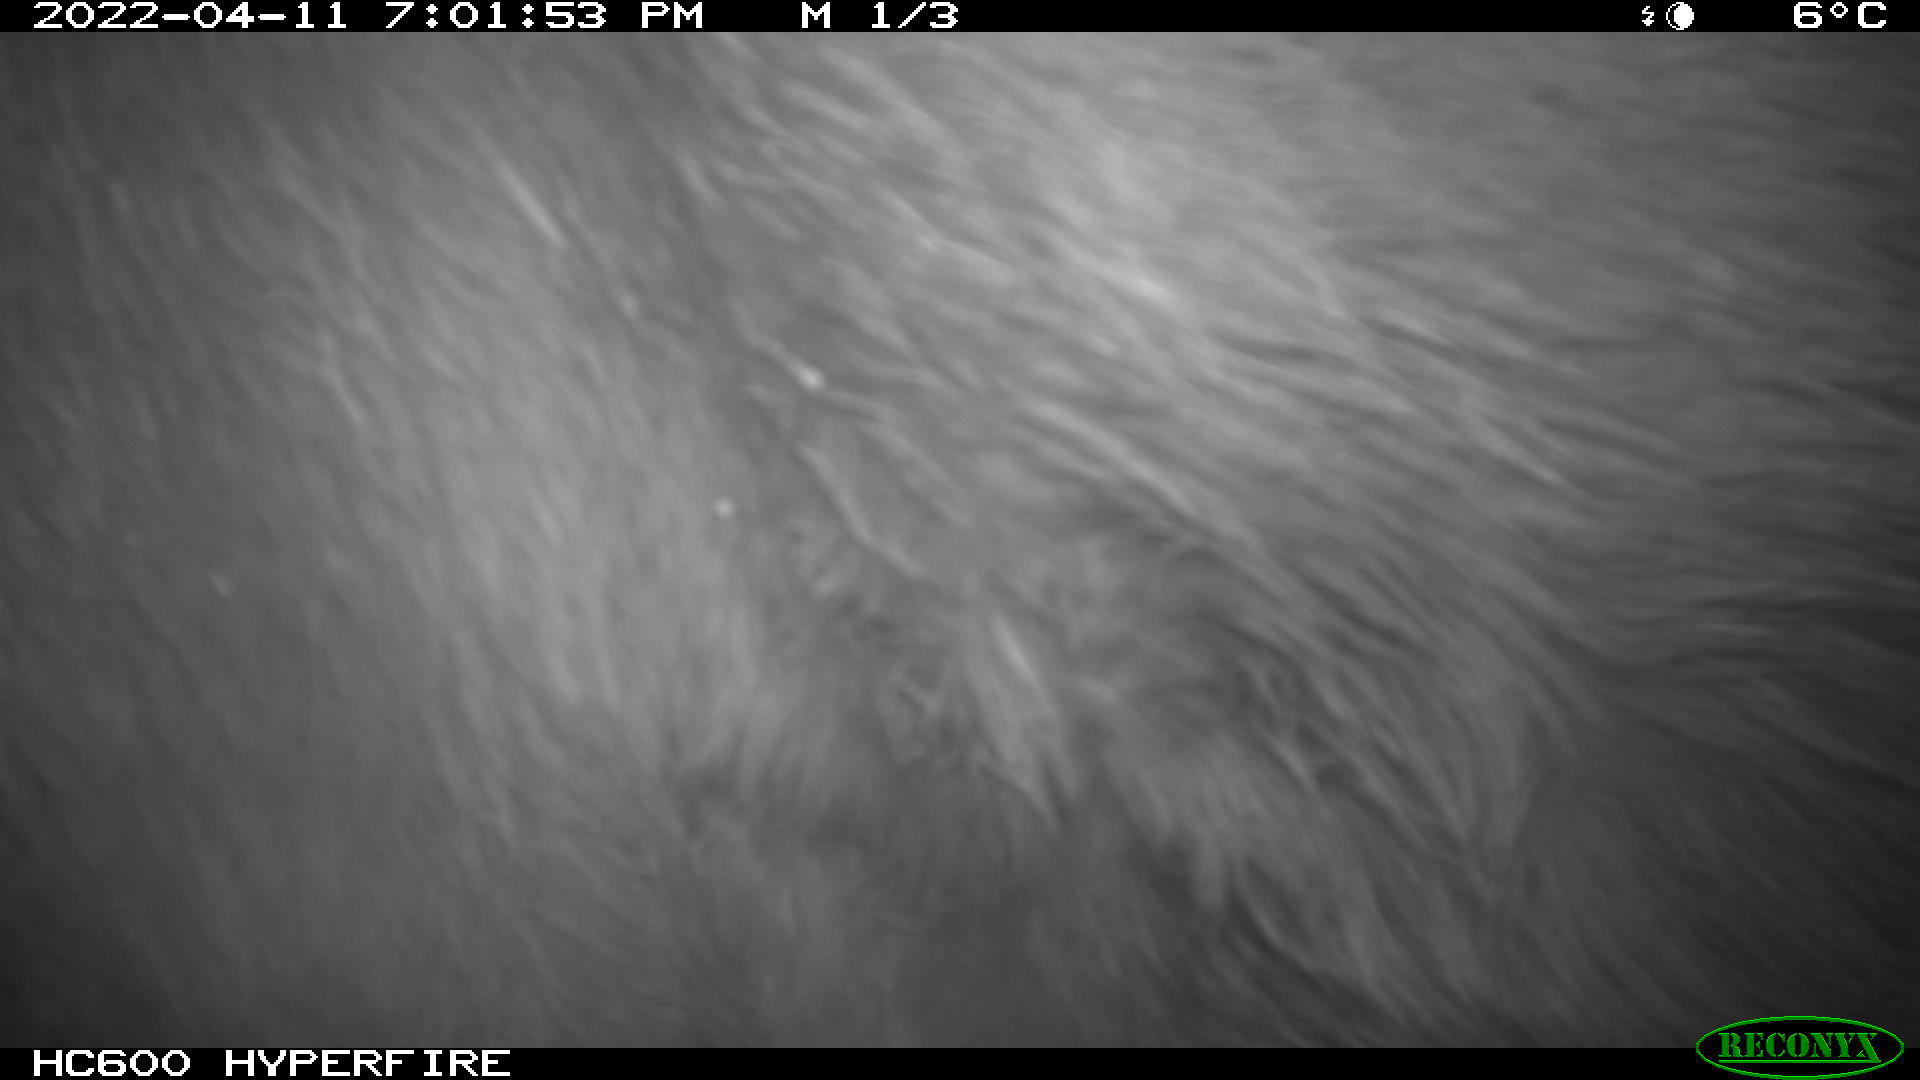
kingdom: Animalia
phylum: Chordata
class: Mammalia
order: Perissodactyla
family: Equidae
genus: Equus
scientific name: Equus caballus
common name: Horse
